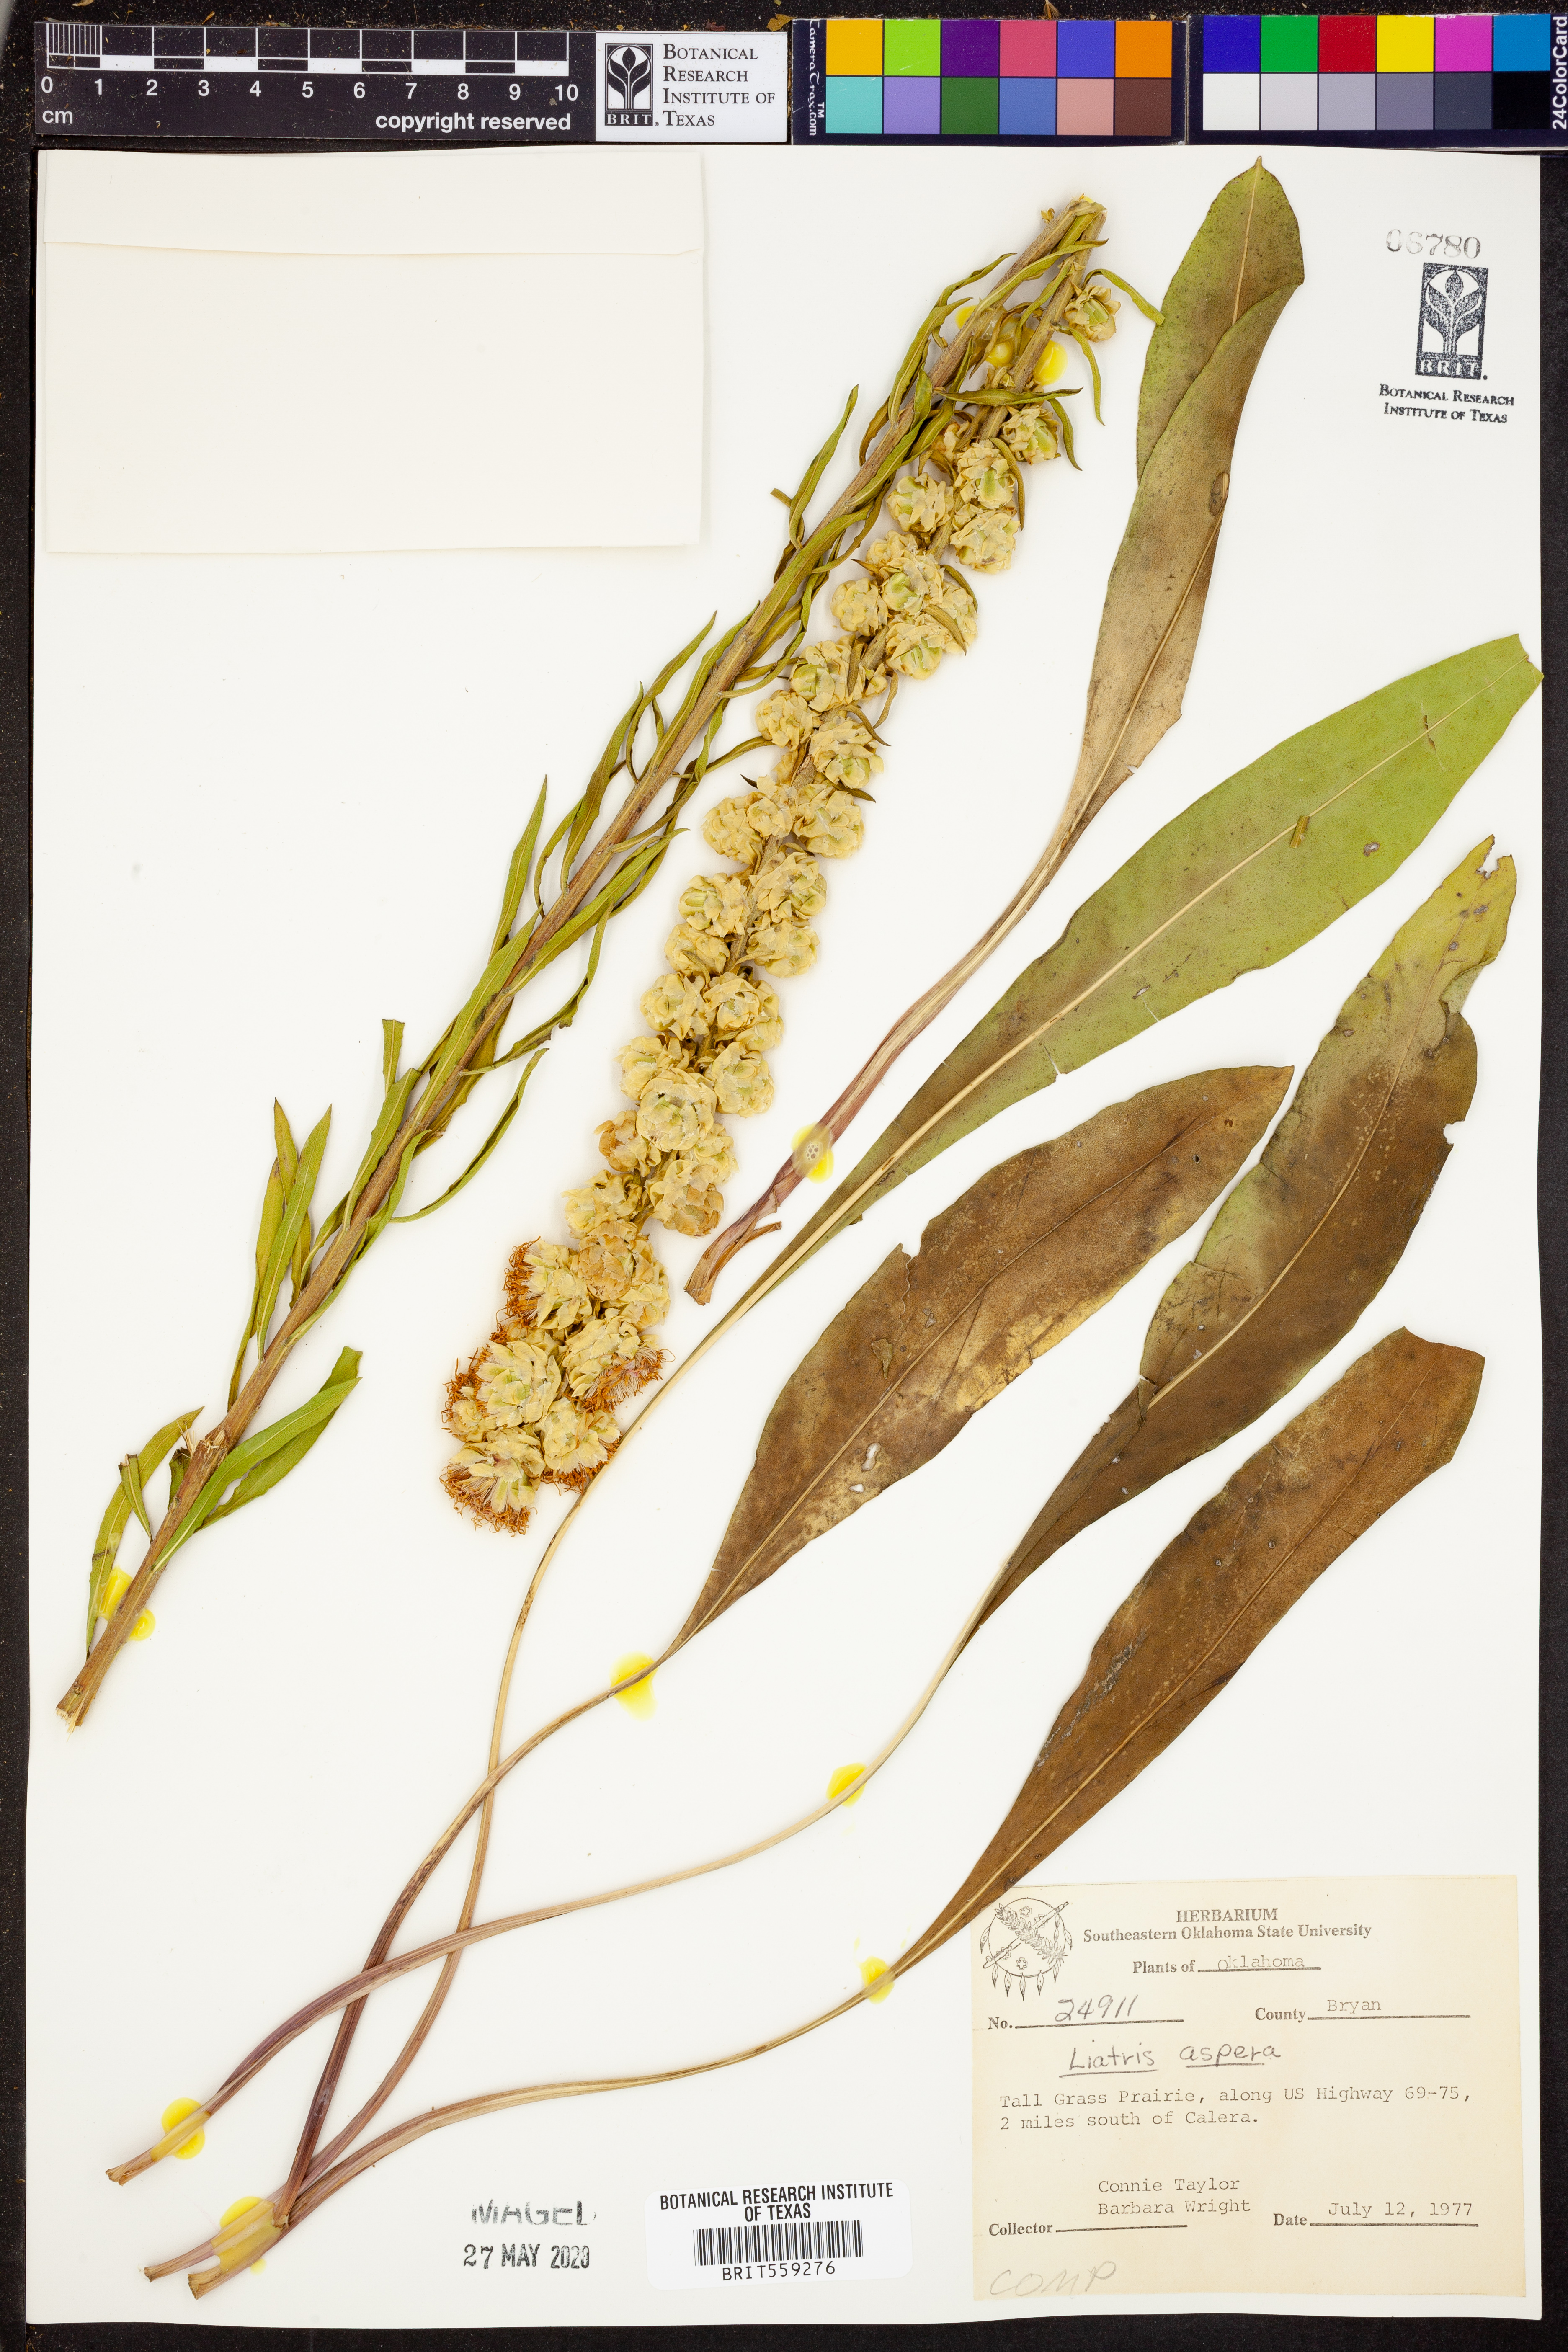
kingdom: Plantae
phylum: Tracheophyta
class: Magnoliopsida
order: Asterales
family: Asteraceae
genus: Liatris
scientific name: Liatris aspera
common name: Lacerate blazing-star
